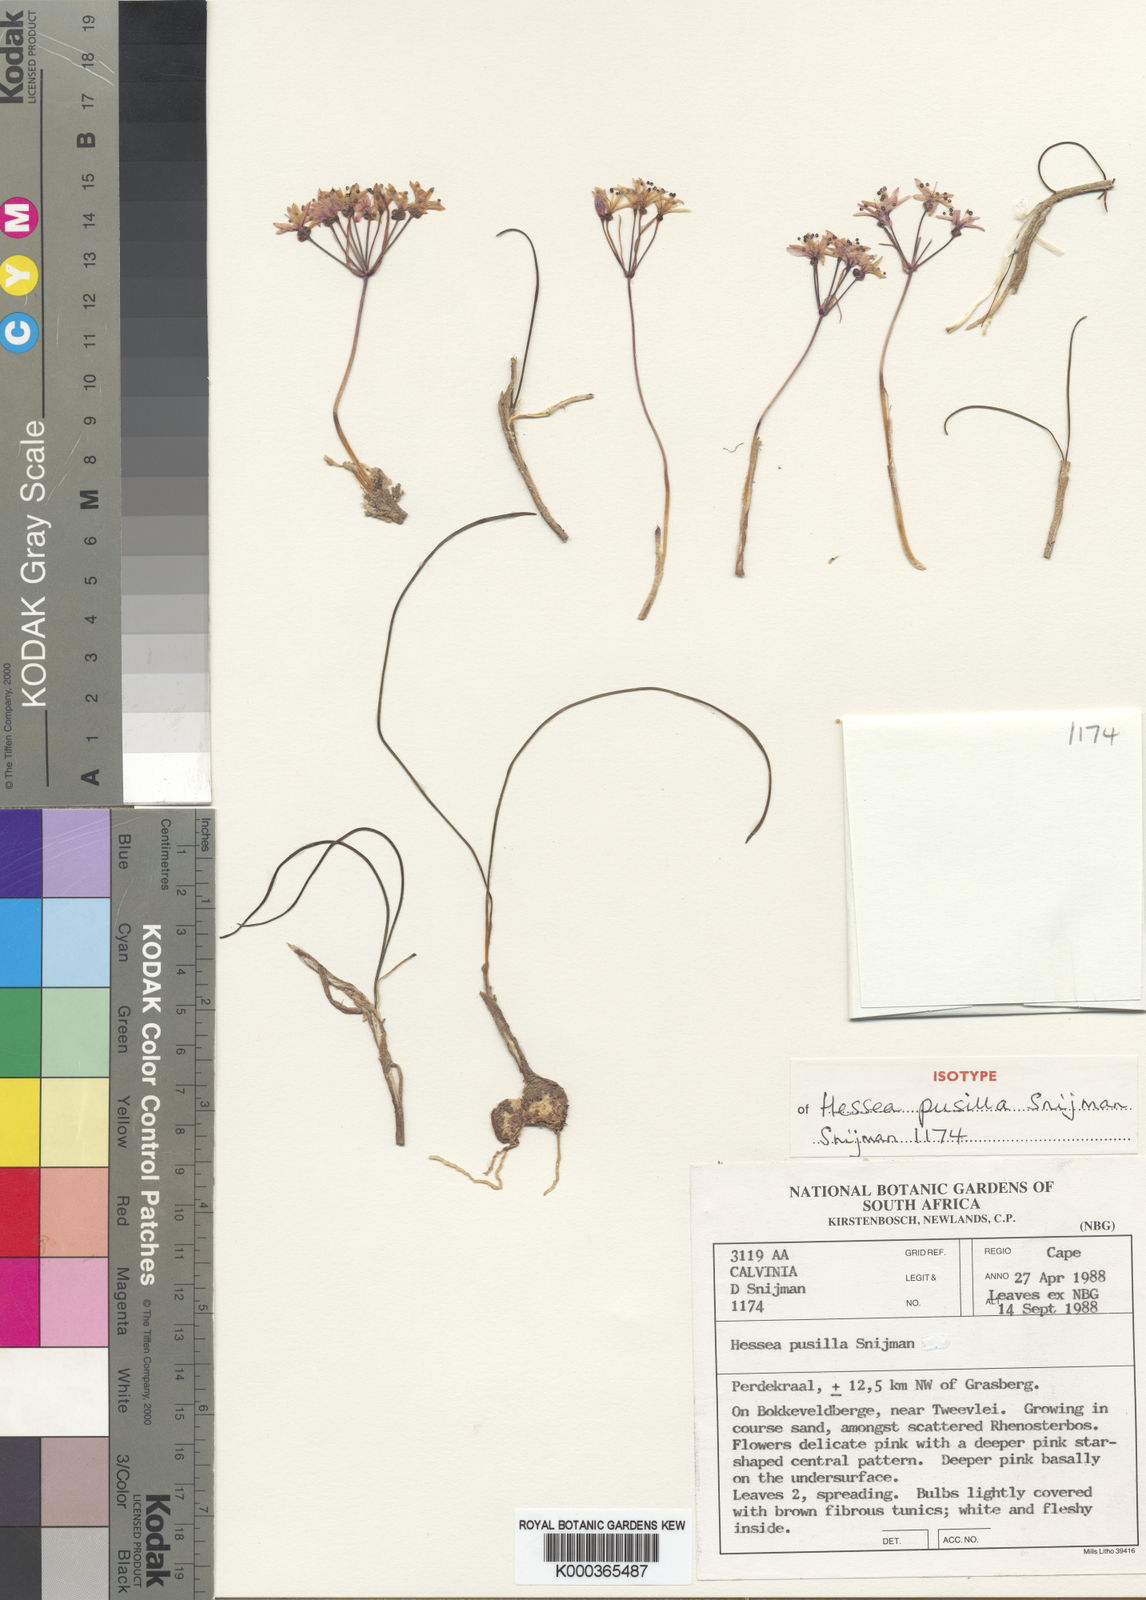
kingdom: Plantae
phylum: Tracheophyta
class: Liliopsida
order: Asparagales
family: Amaryllidaceae
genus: Hessea
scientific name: Hessea pusilla
